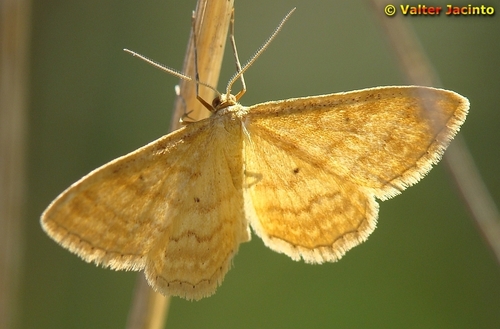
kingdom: Animalia
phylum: Arthropoda
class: Insecta
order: Lepidoptera
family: Geometridae
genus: Idaea
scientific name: Idaea ochrata
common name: Bright wave
